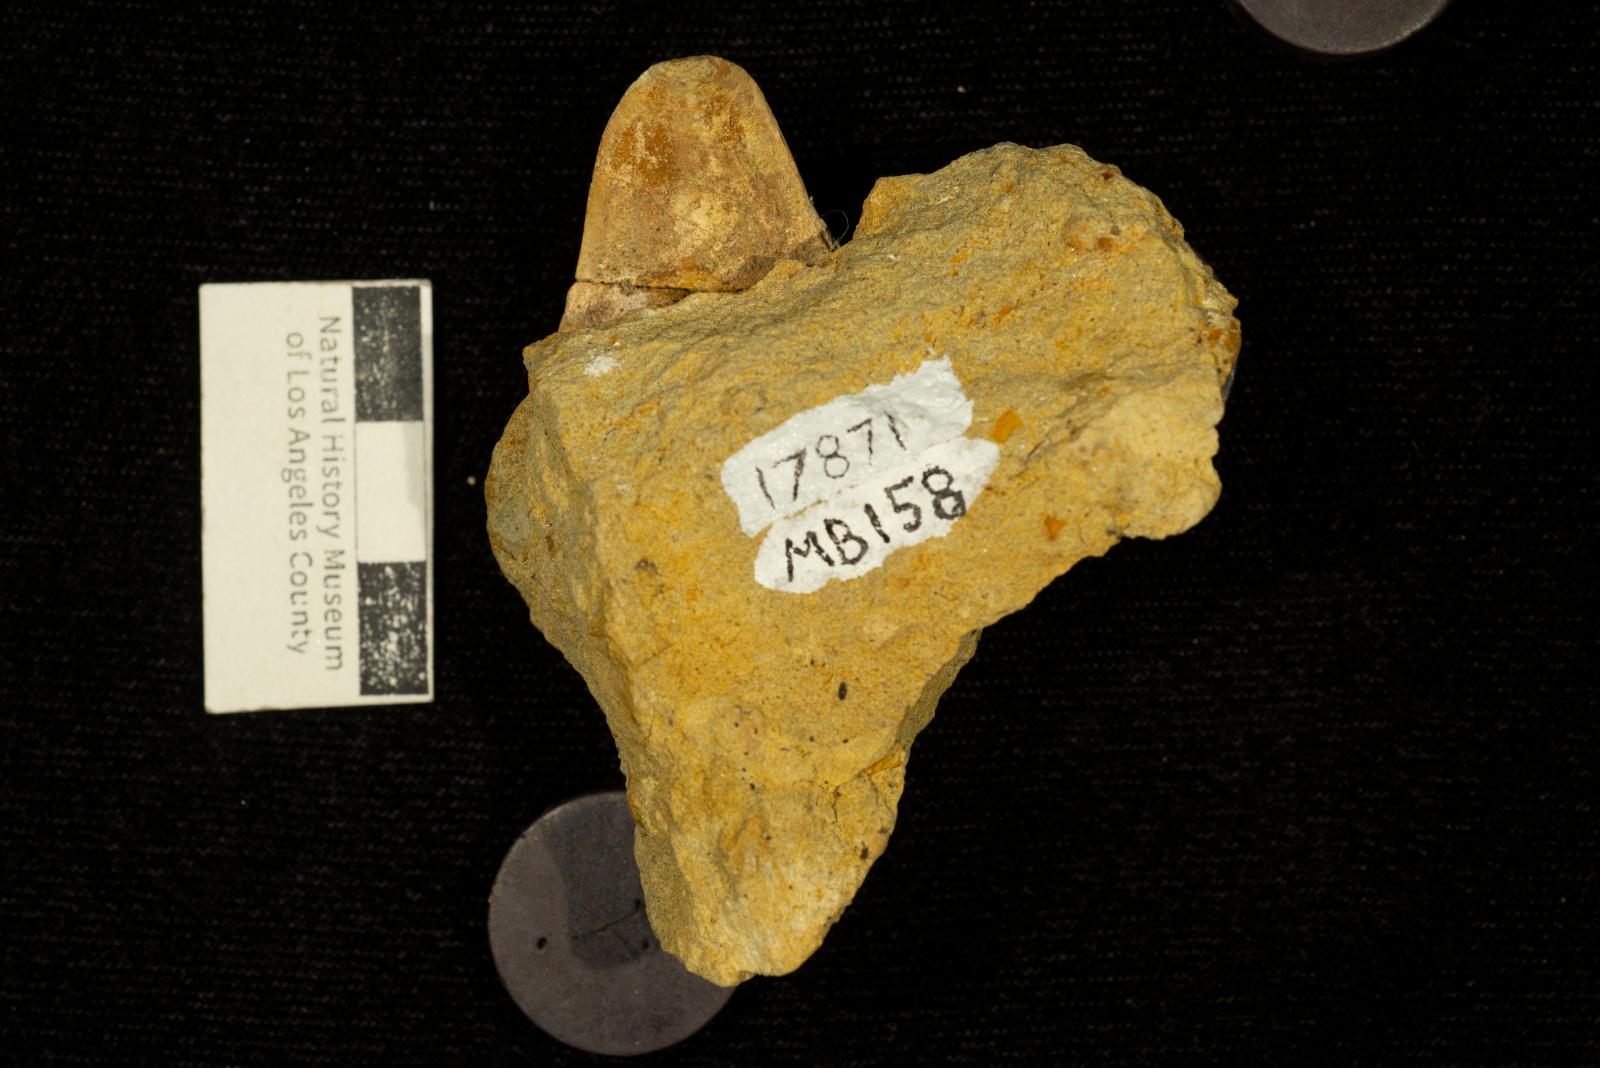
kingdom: Animalia
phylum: Mollusca
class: Bivalvia
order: Carditida
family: Astartidae
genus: Opis
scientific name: Opis anae
